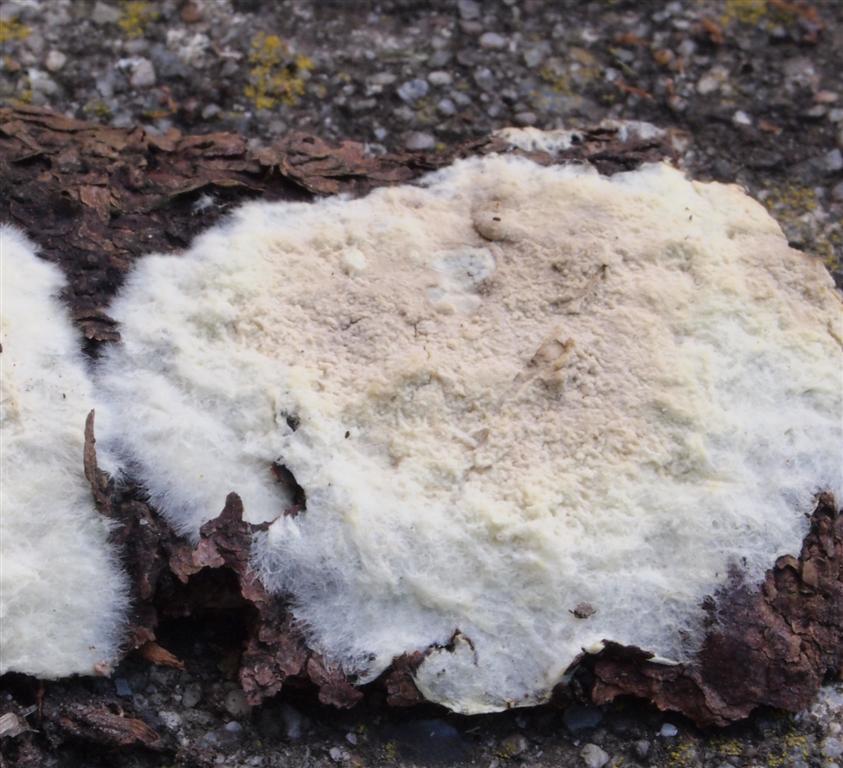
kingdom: Fungi
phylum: Basidiomycota
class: Agaricomycetes
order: Boletales
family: Coniophoraceae
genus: Coniophora
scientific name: Coniophora arida
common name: tynd tømmersvamp
